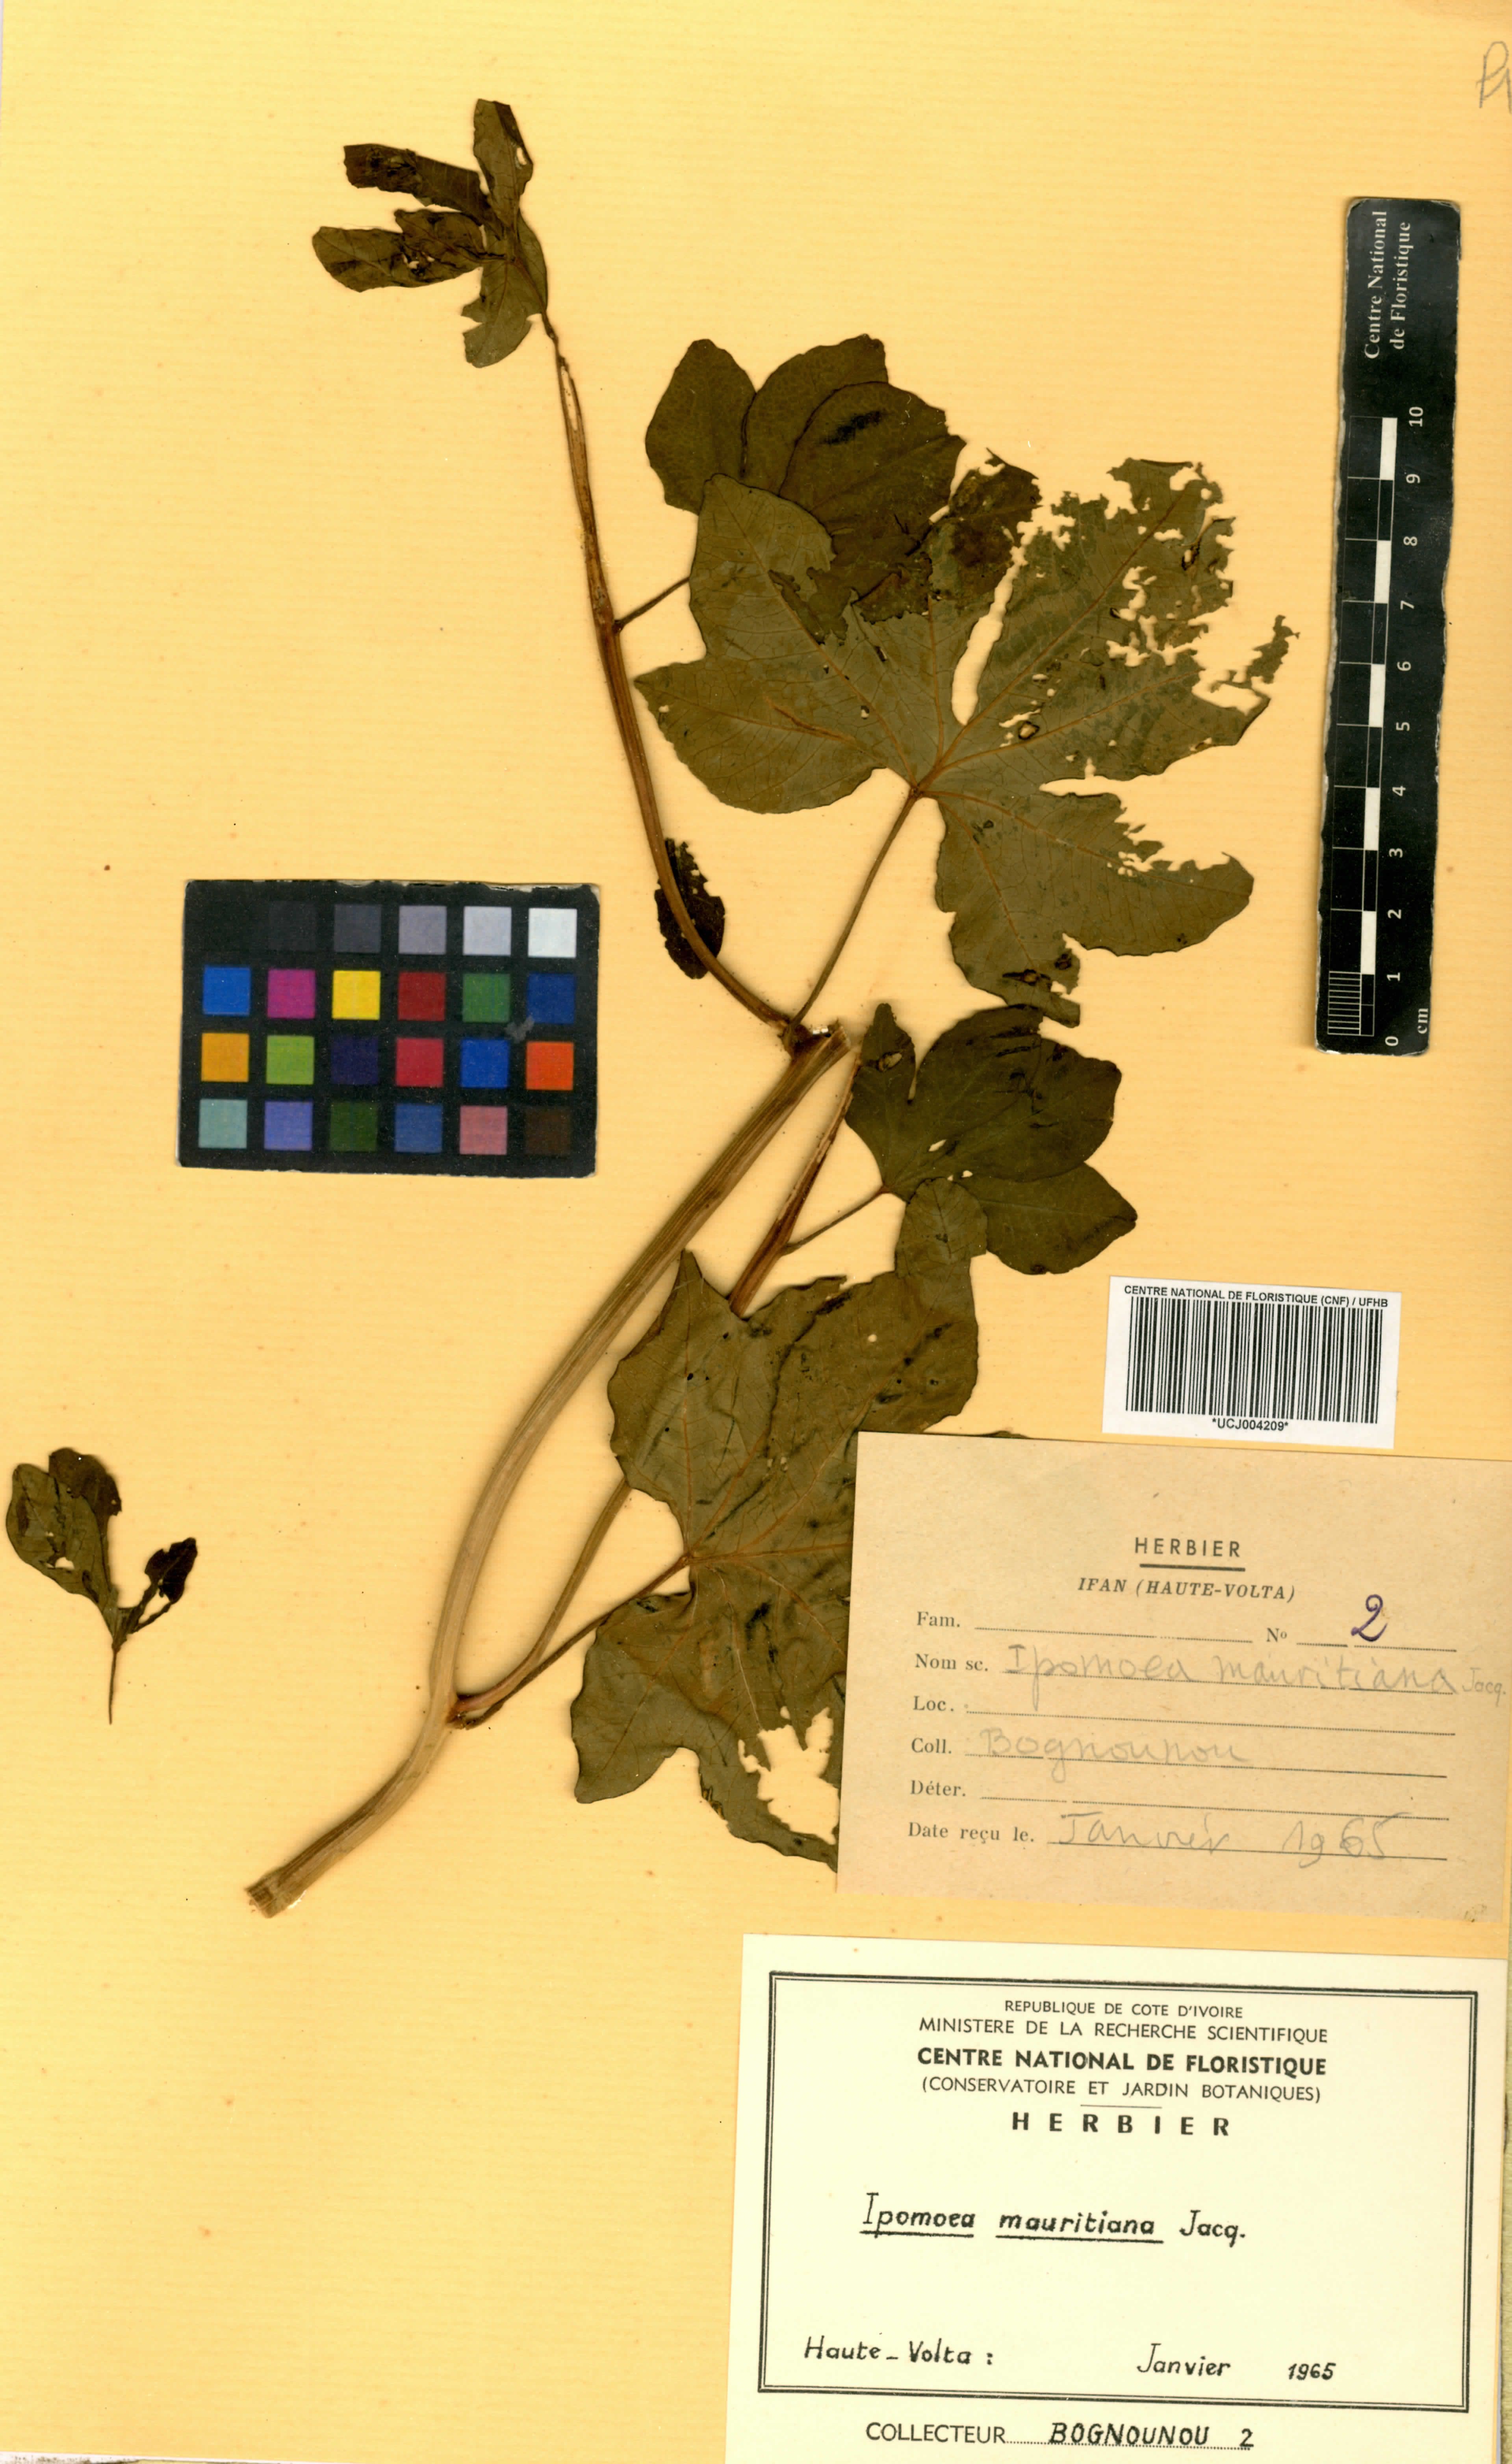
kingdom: Plantae
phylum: Tracheophyta
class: Magnoliopsida
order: Solanales
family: Convolvulaceae
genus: Ipomoea
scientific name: Ipomoea mauritiana
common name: Mauritanian convolvulus
